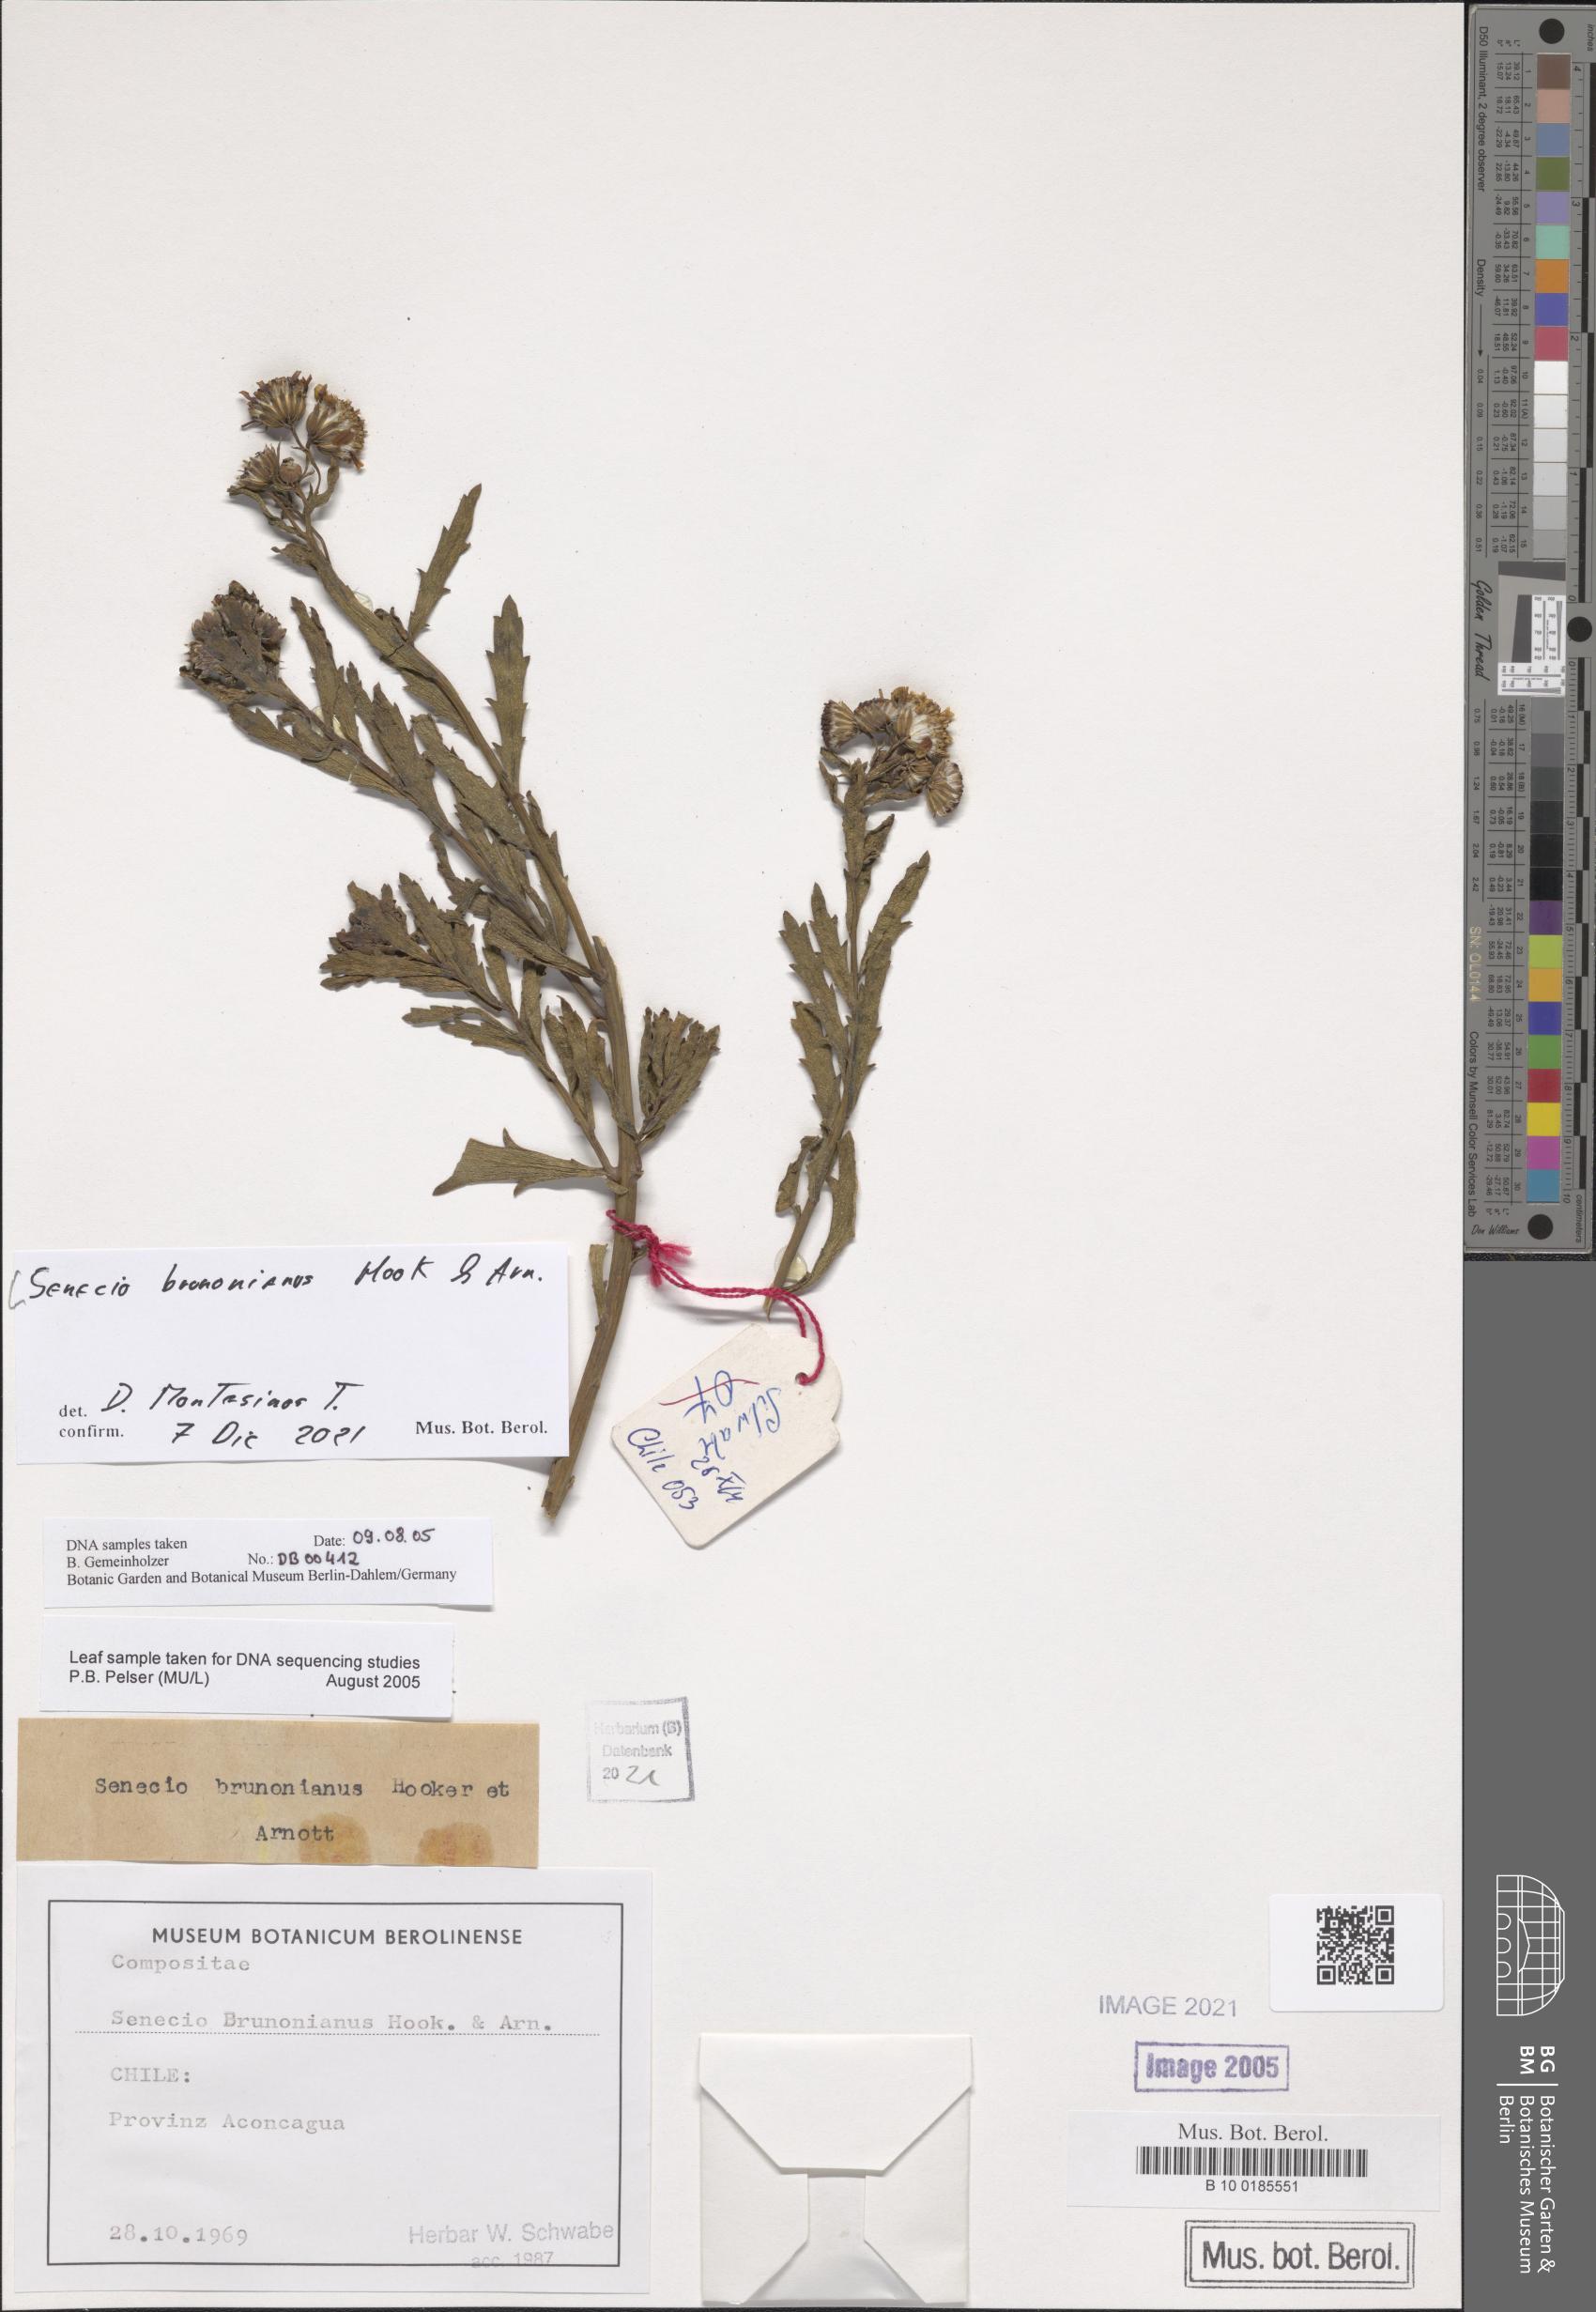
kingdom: Plantae
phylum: Tracheophyta
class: Magnoliopsida
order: Asterales
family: Asteraceae
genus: Senecio
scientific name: Senecio brunonianus
